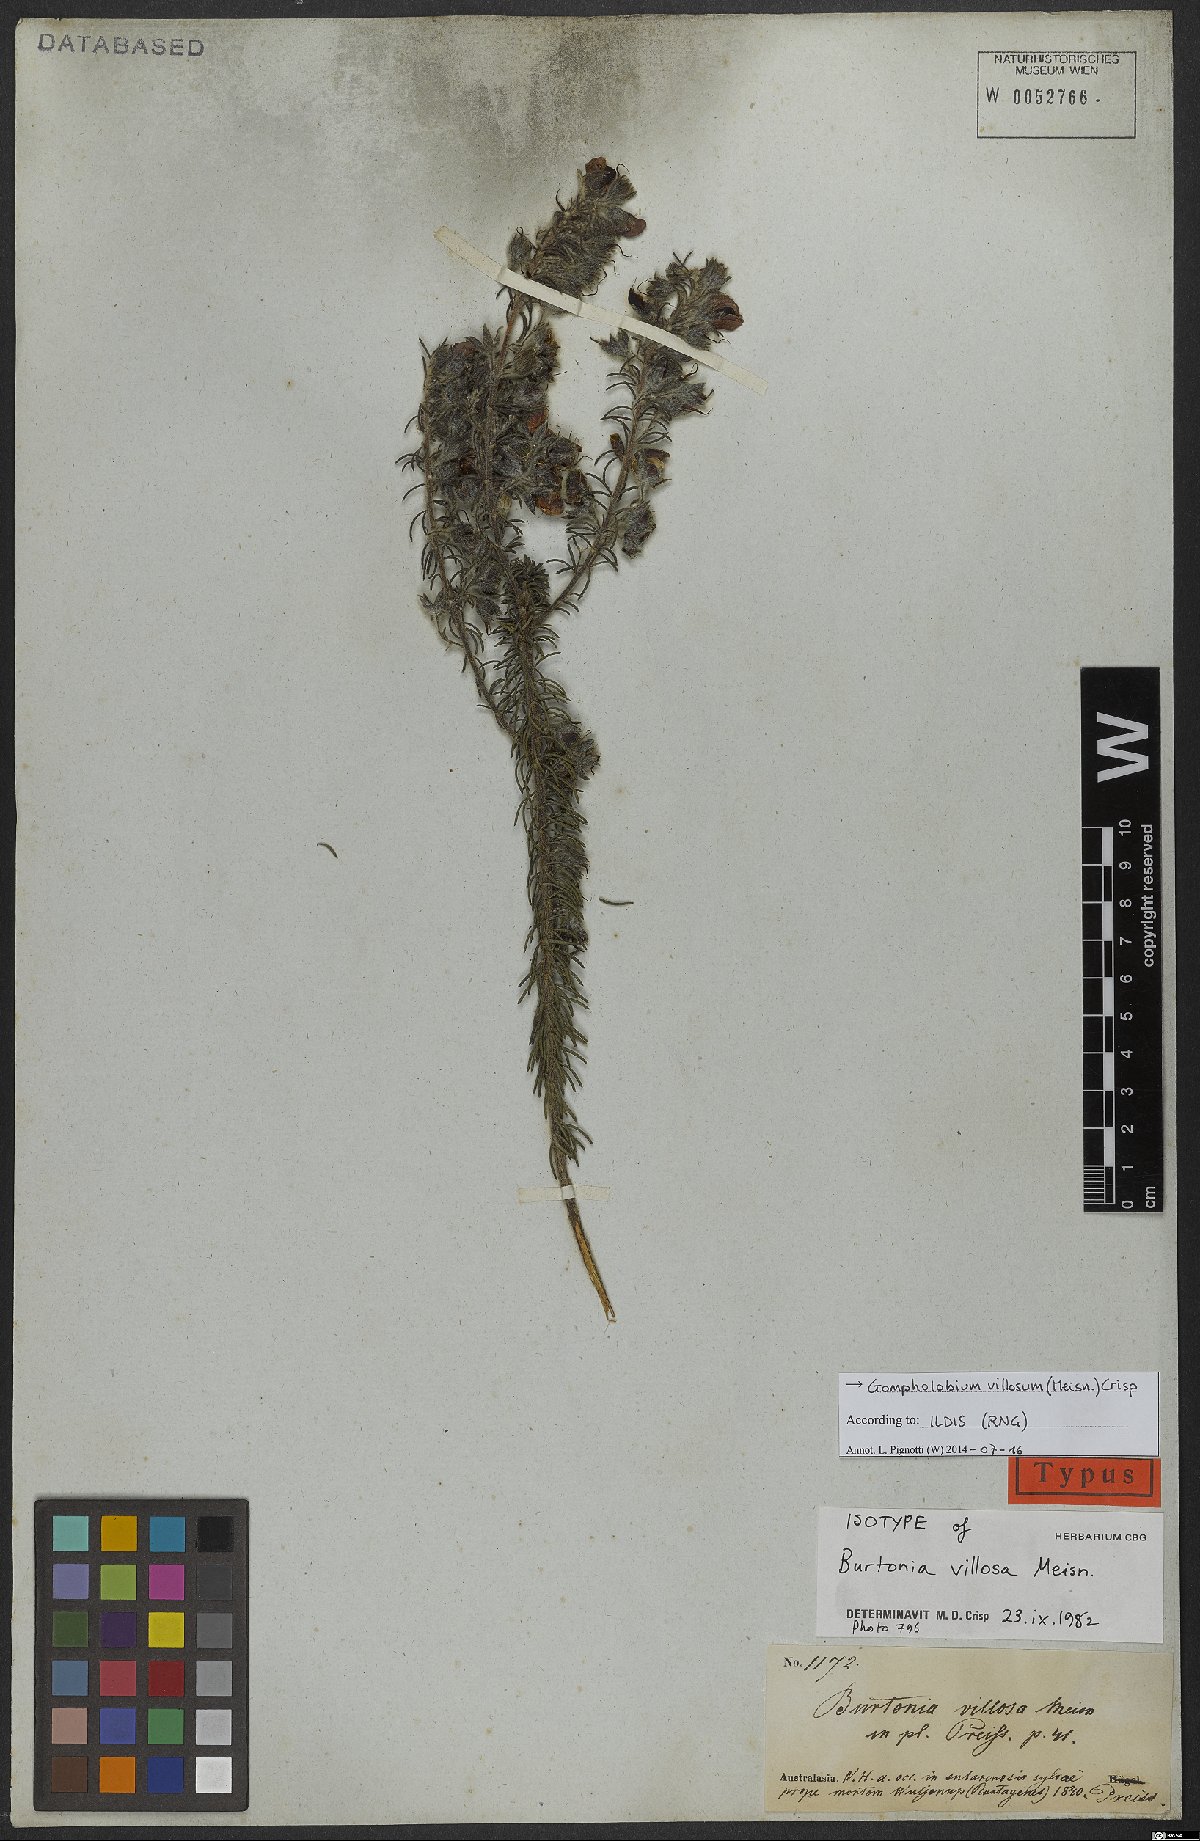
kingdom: Plantae
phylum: Tracheophyta
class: Magnoliopsida
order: Fabales
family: Fabaceae
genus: Gompholobium
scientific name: Gompholobium villosum
